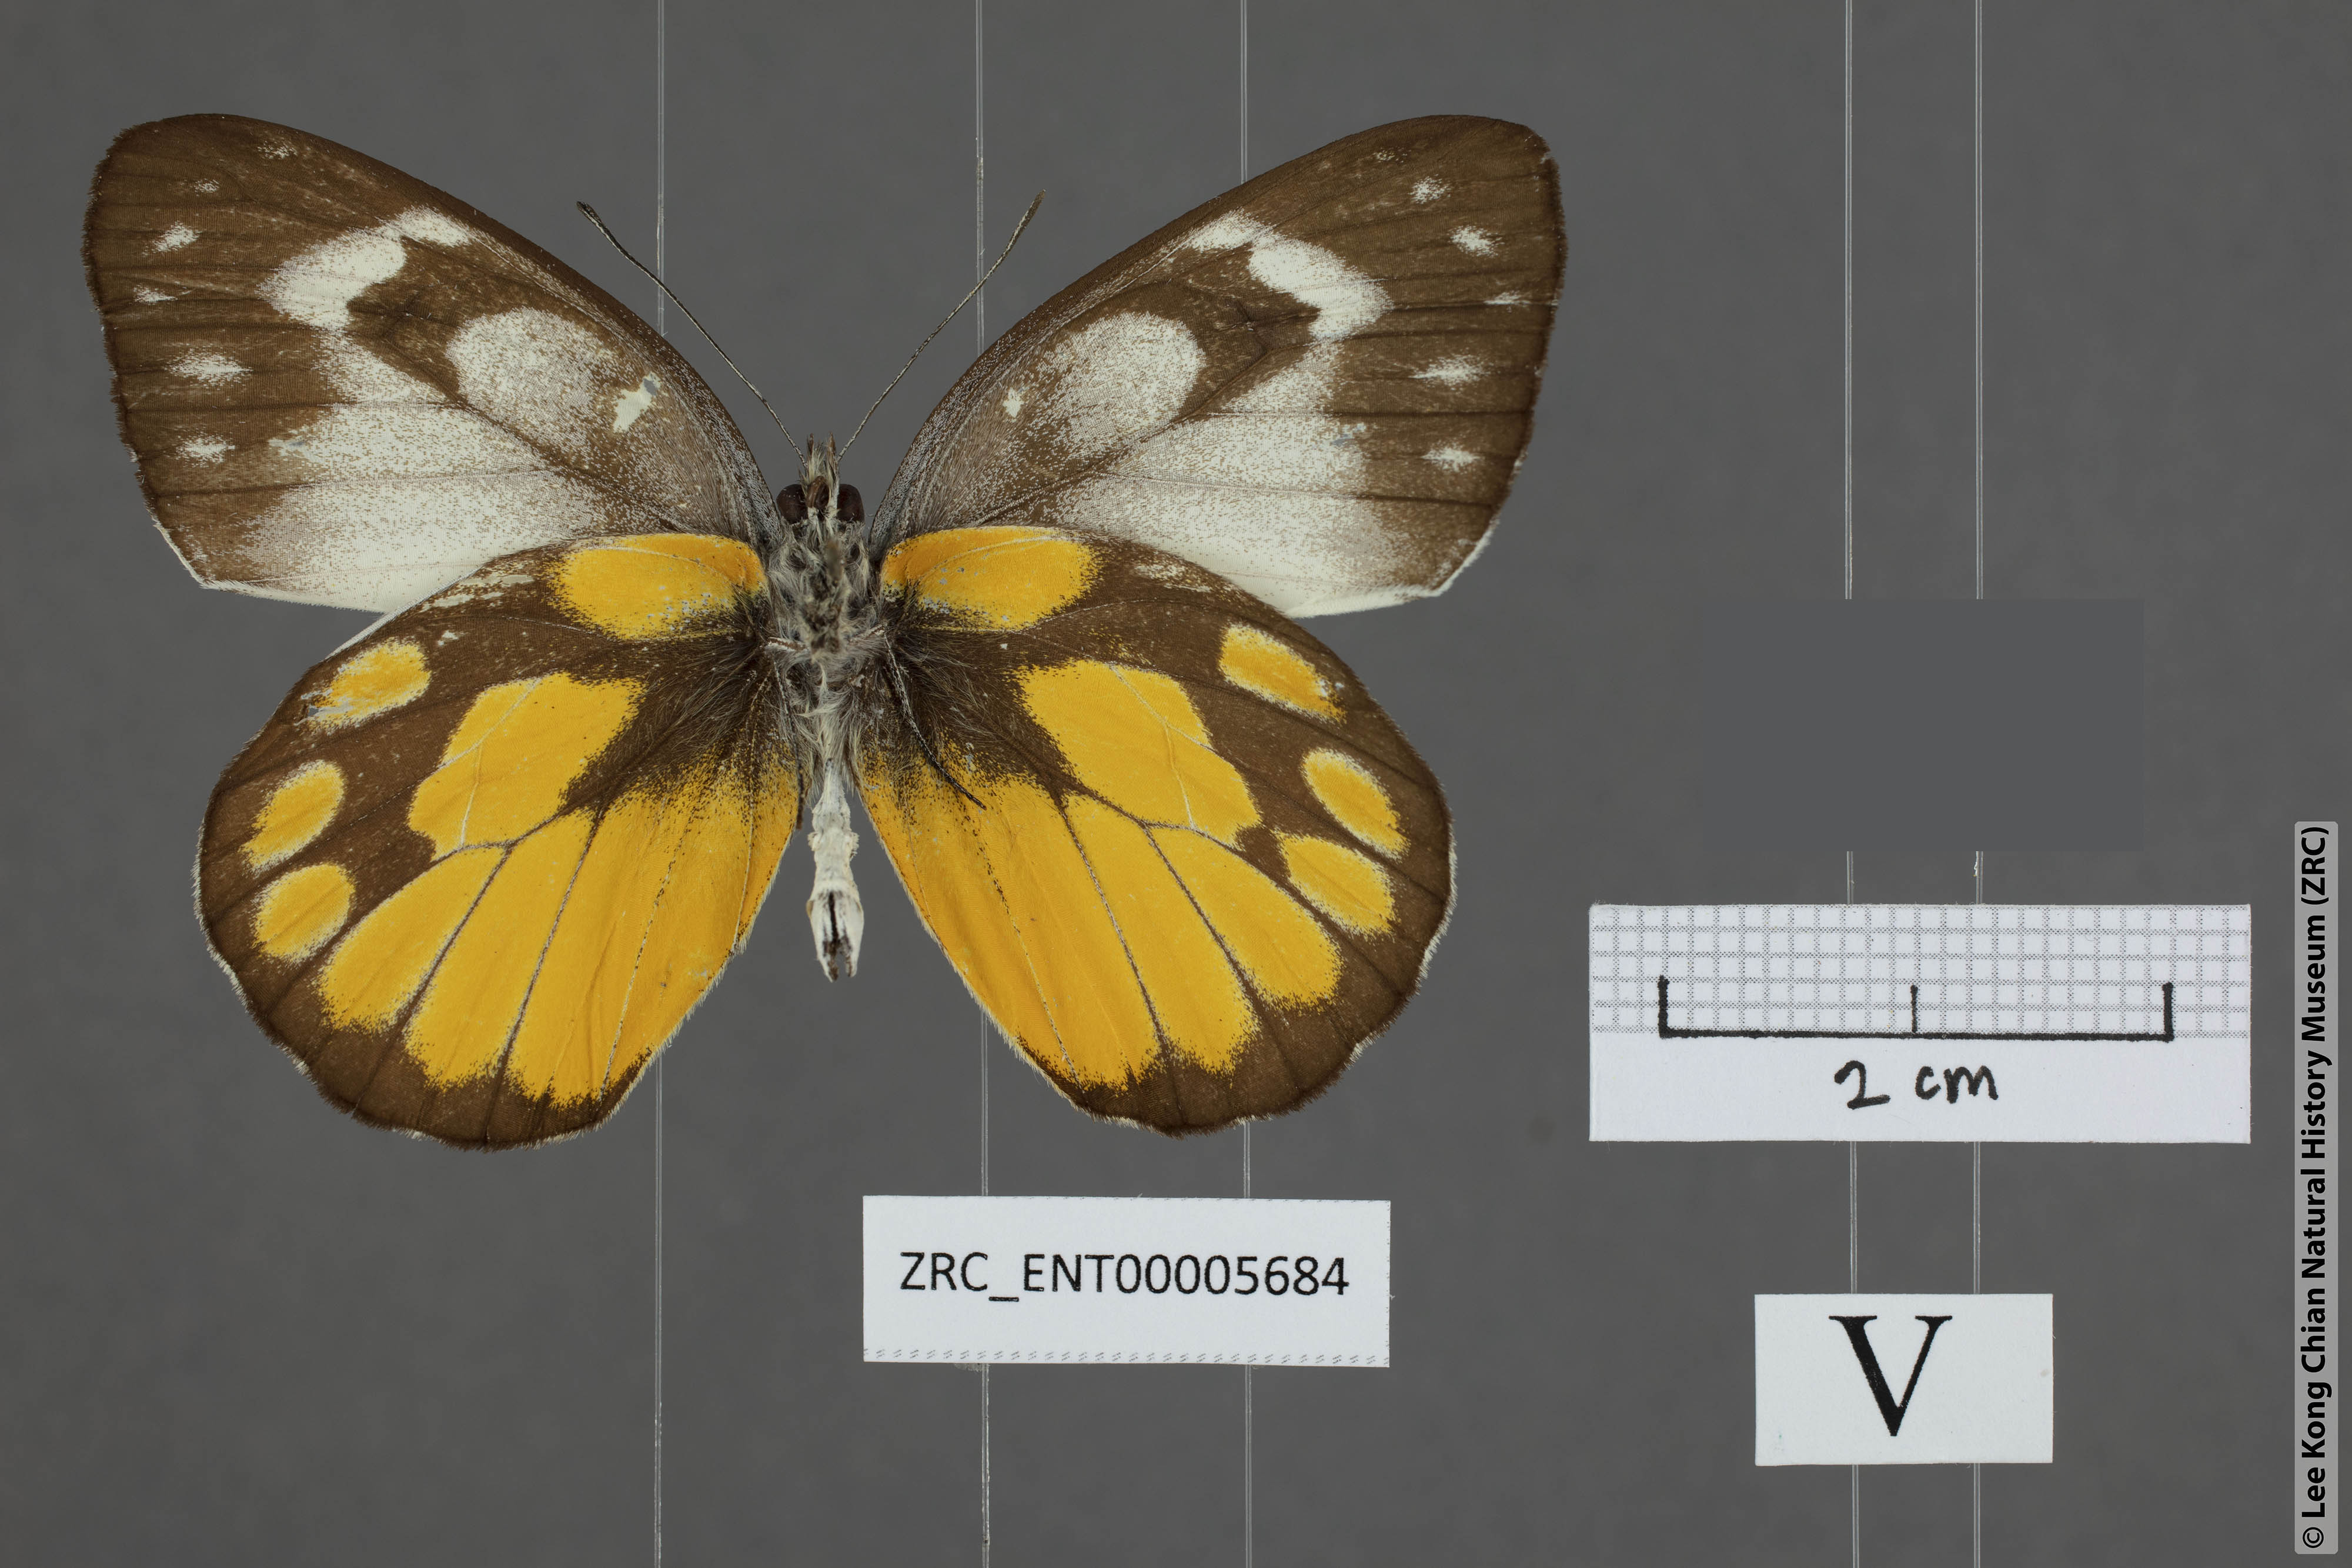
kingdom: Animalia
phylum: Arthropoda
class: Insecta
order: Lepidoptera
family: Pieridae
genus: Delias
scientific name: Delias georgina
